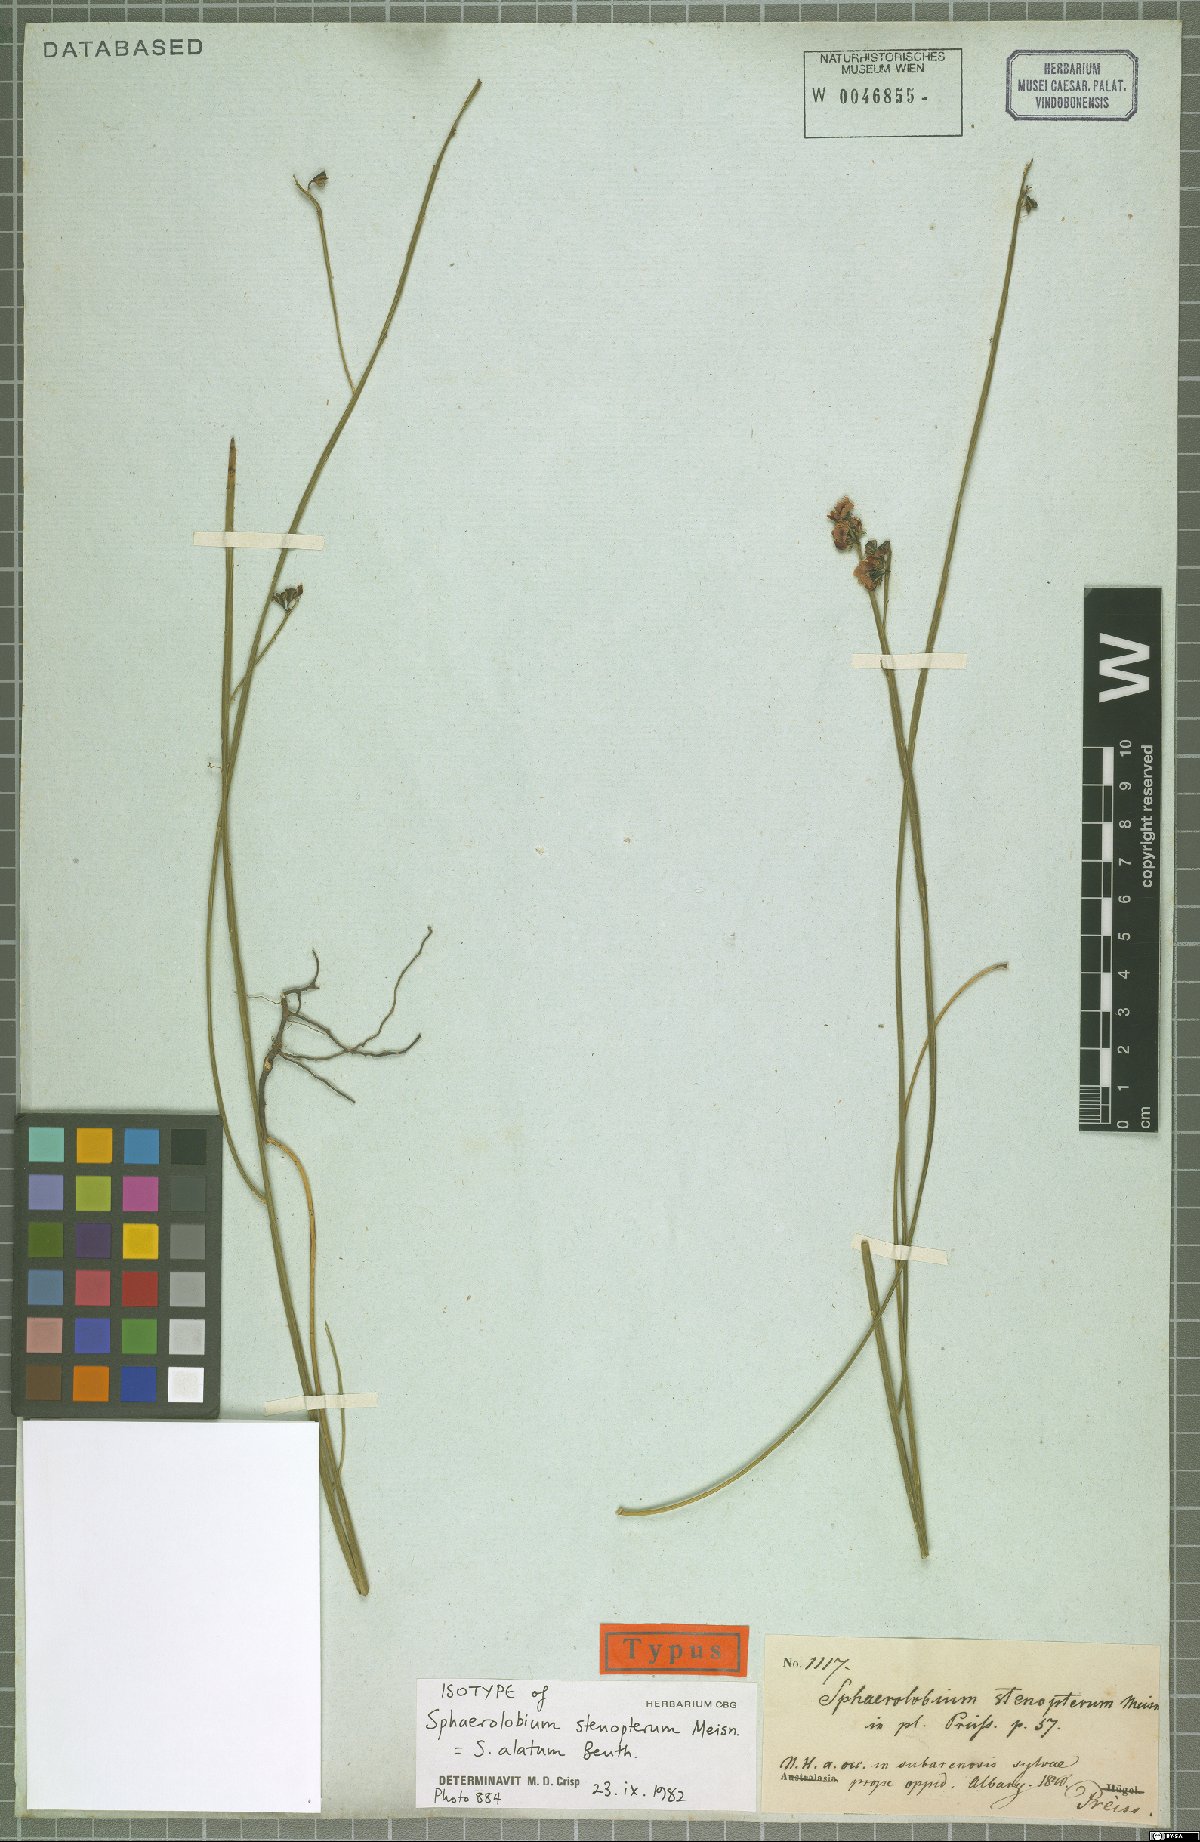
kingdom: Plantae
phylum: Tracheophyta
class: Magnoliopsida
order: Fabales
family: Fabaceae
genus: Sphaerolobium
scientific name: Sphaerolobium alatum
